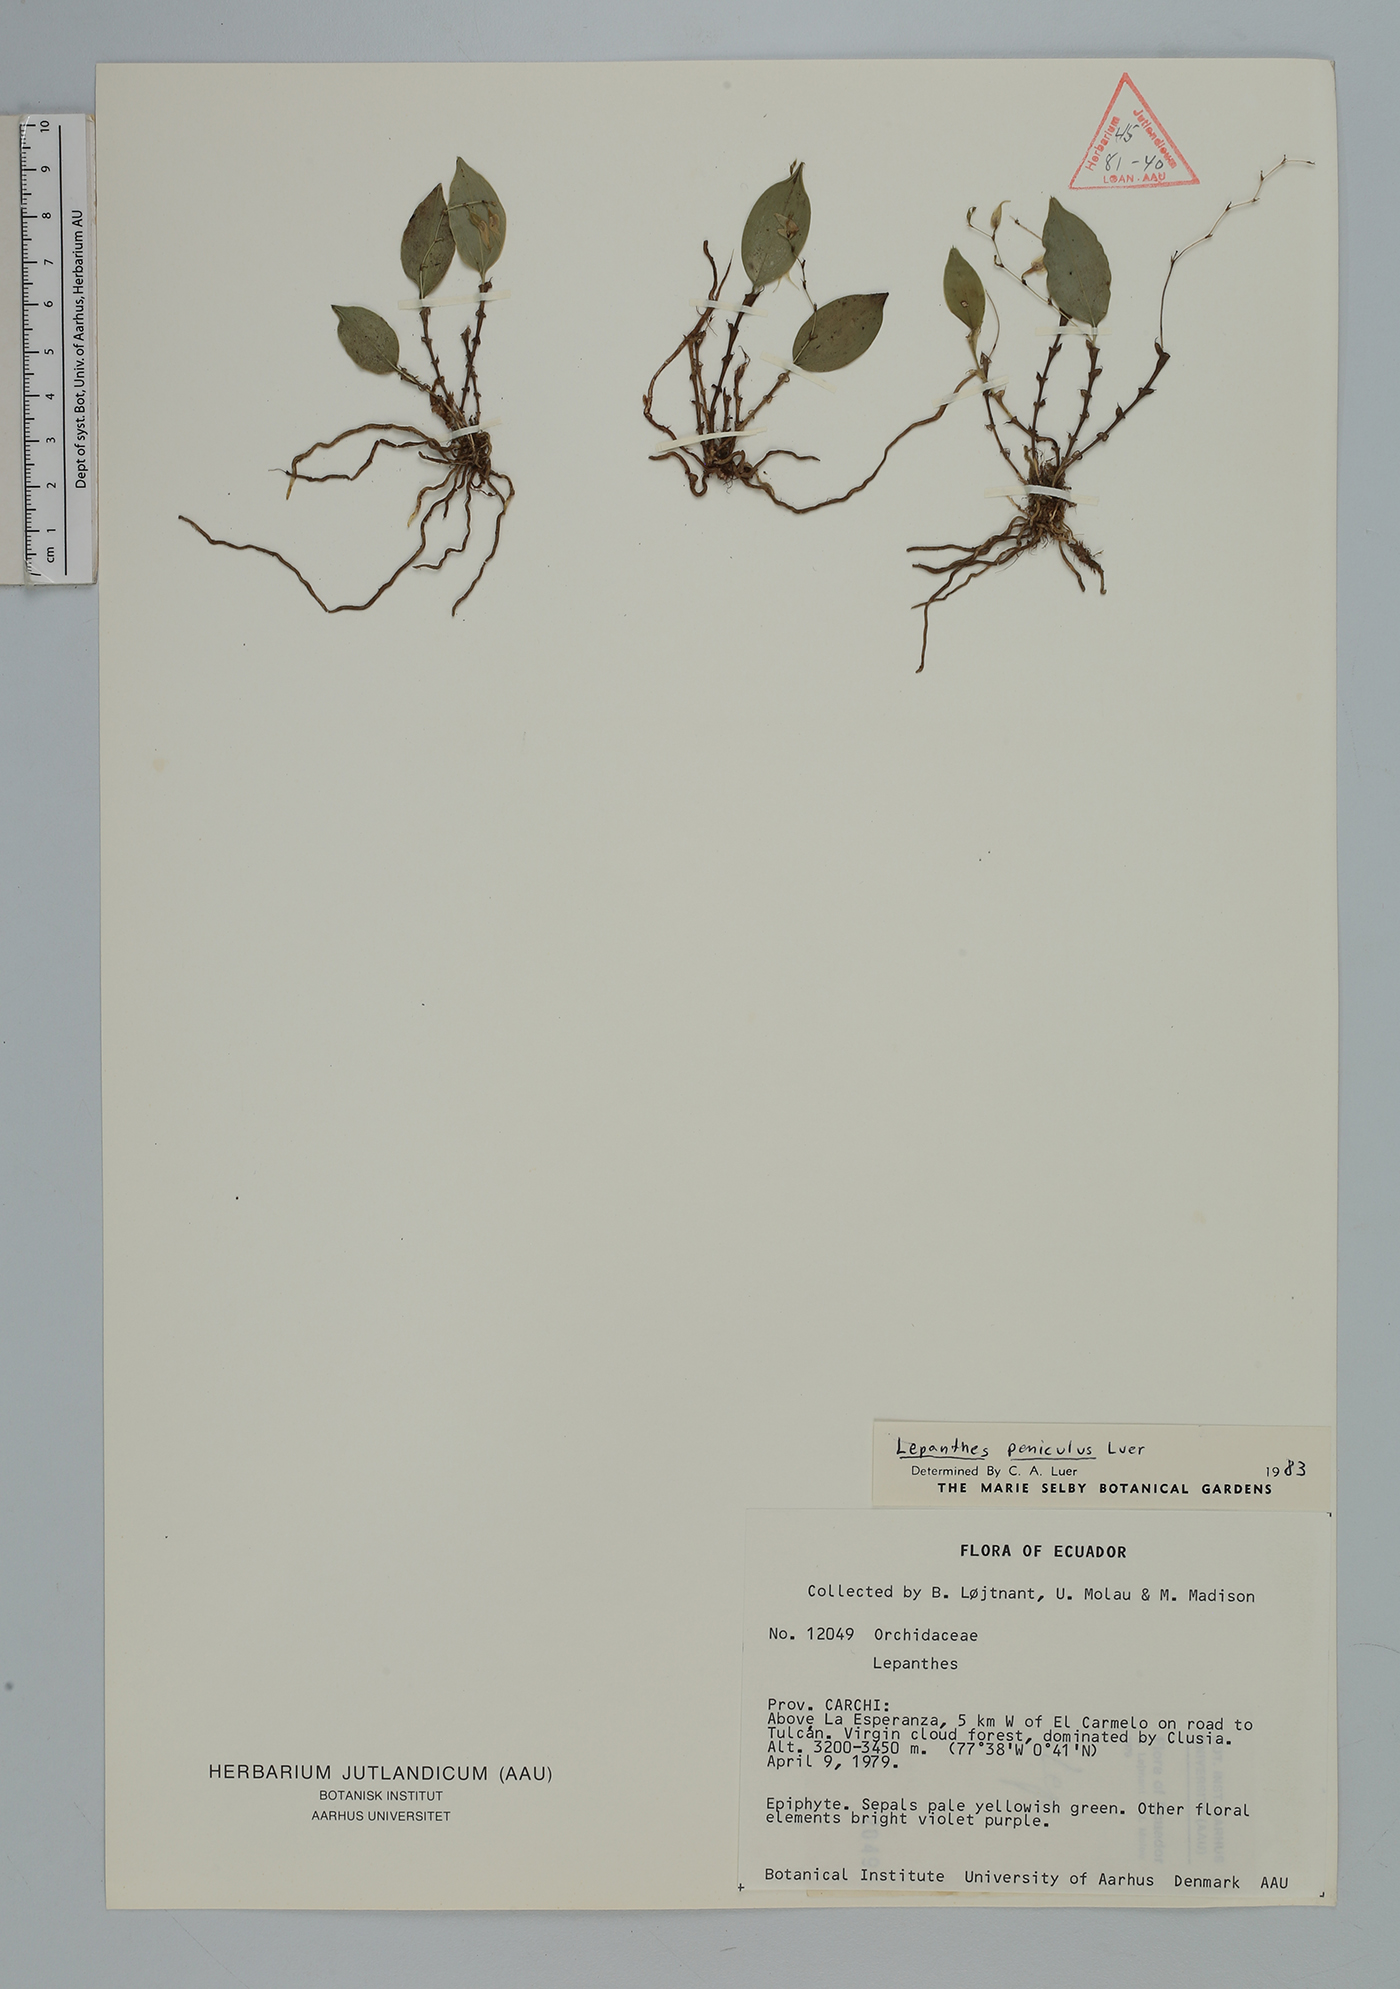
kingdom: Plantae
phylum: Tracheophyta
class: Liliopsida
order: Asparagales
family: Orchidaceae
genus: Lepanthes
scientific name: Lepanthes
